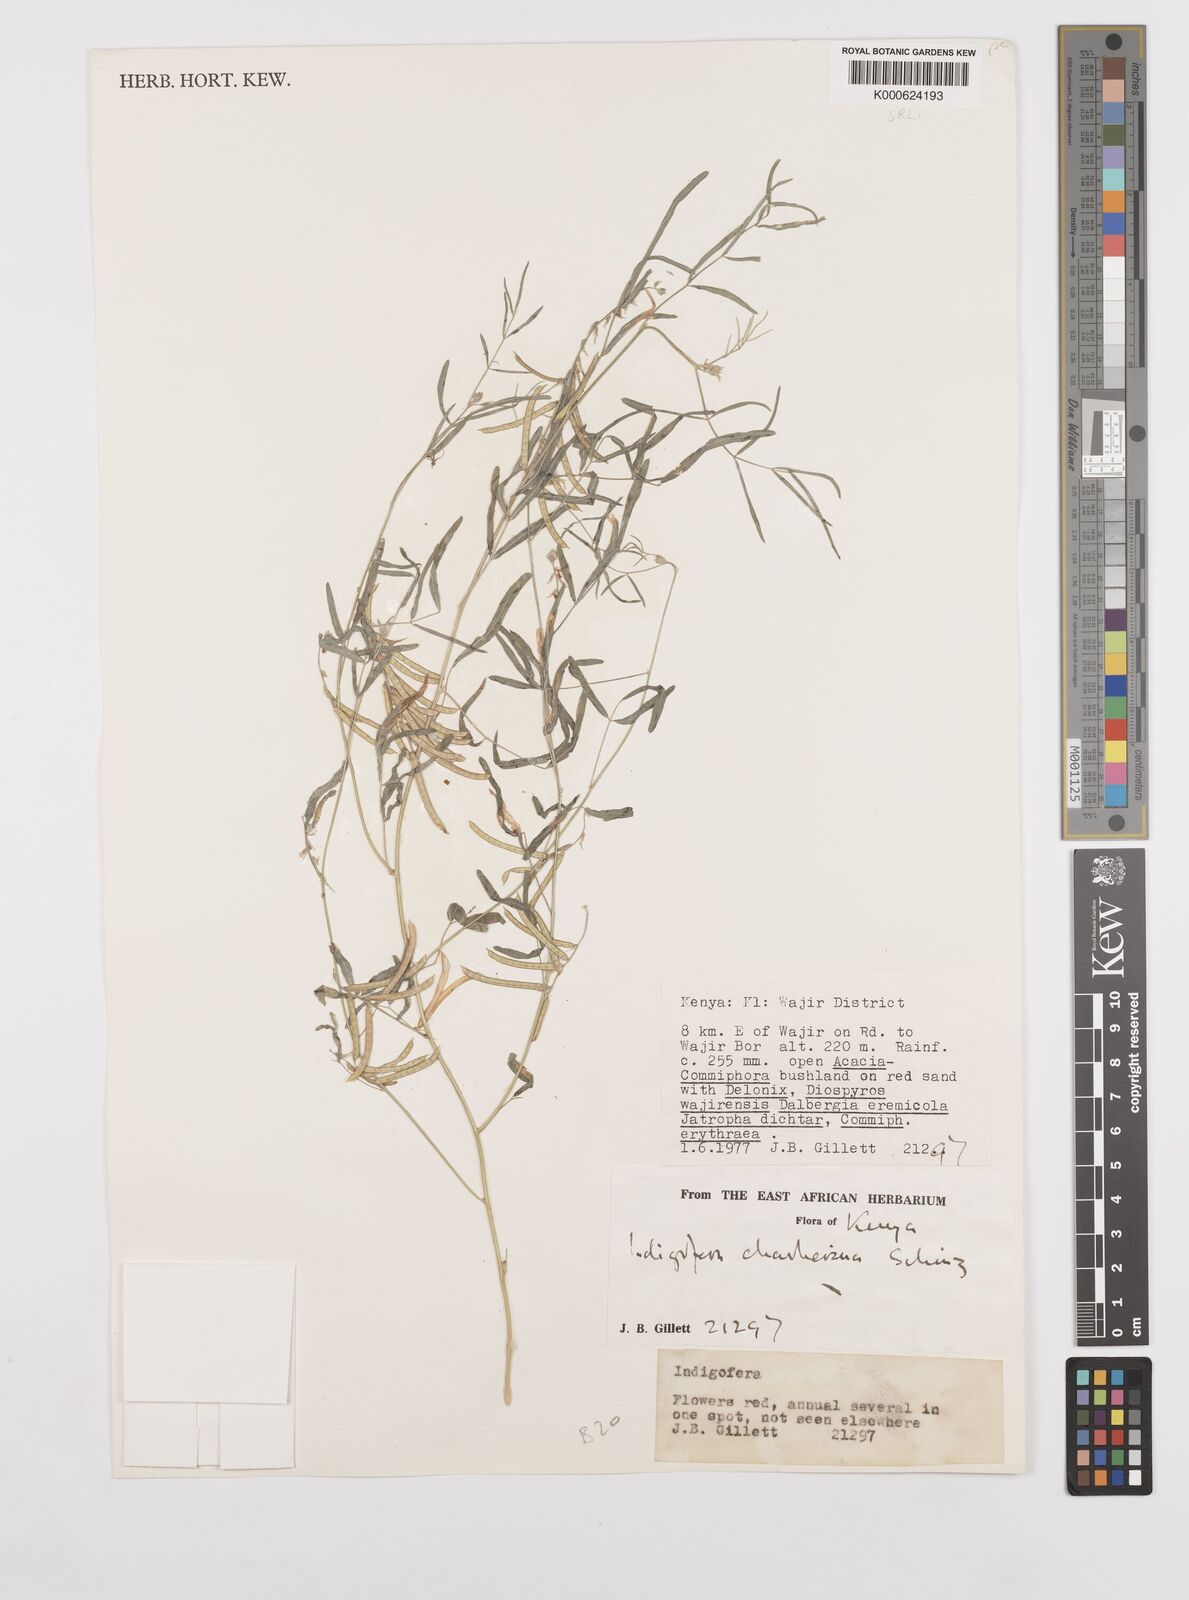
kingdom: Plantae
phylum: Tracheophyta
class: Magnoliopsida
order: Fabales
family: Fabaceae
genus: Indigofera
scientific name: Indigofera charlieriana
